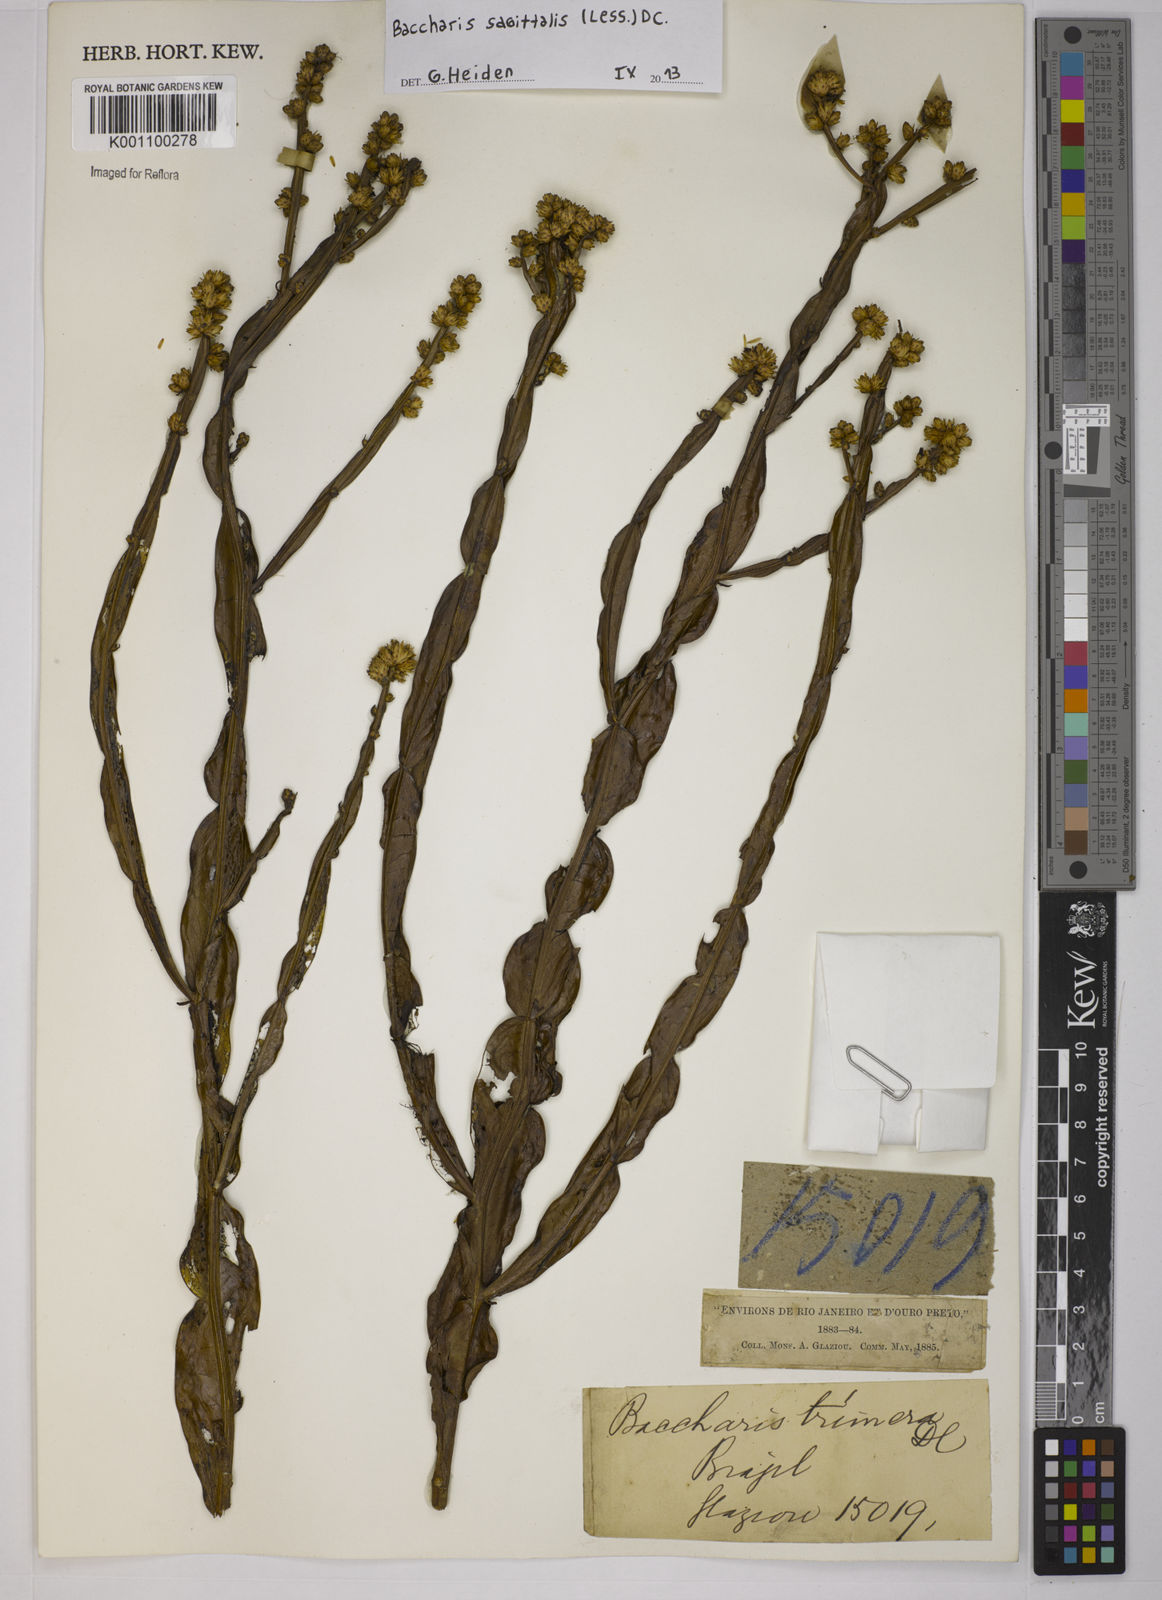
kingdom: Plantae
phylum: Tracheophyta
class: Magnoliopsida
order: Asterales
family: Asteraceae
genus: Baccharis
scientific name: Baccharis sagittalis
